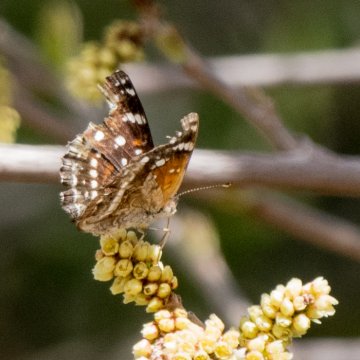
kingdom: Animalia
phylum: Arthropoda
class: Insecta
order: Lepidoptera
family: Nymphalidae
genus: Anthanassa
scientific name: Anthanassa texana
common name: Texan Crescent
